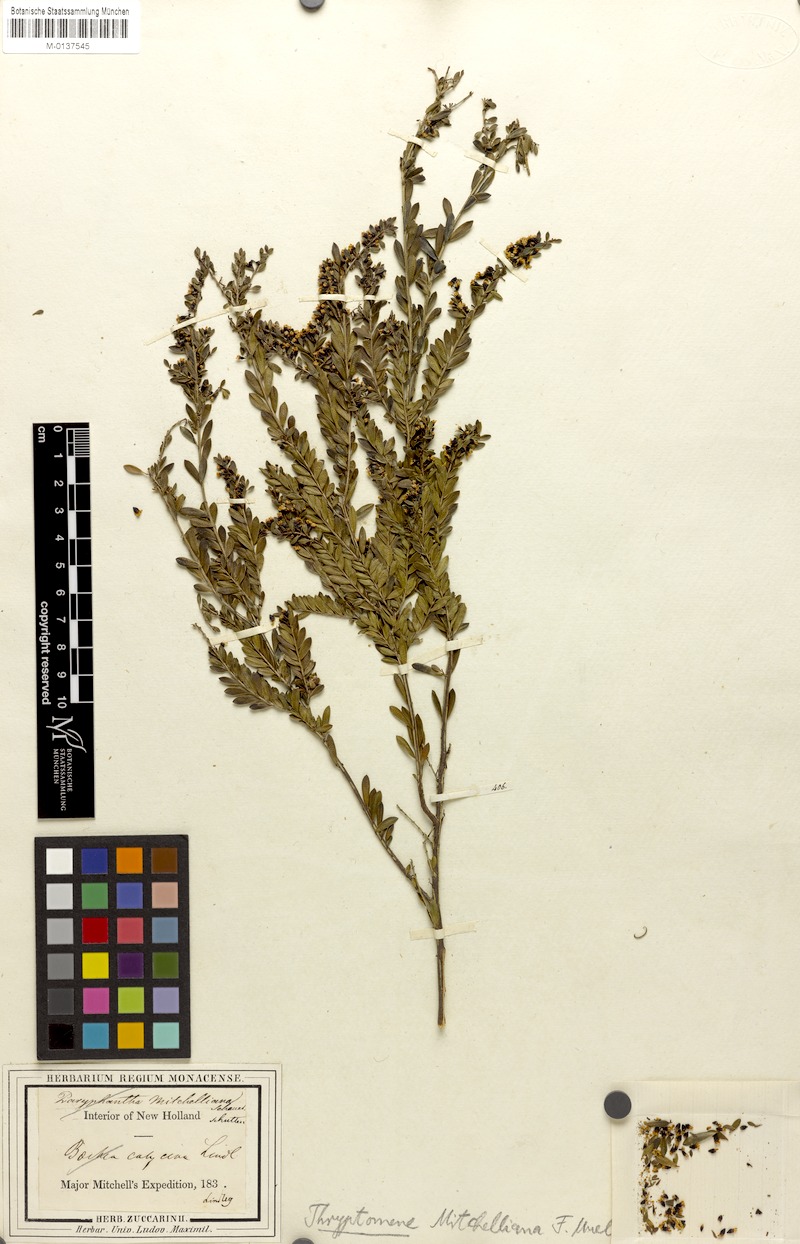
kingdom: Plantae
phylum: Tracheophyta
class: Magnoliopsida
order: Myrtales
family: Myrtaceae
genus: Thryptomene
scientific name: Thryptomene calycina
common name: Grampians thryptomene
